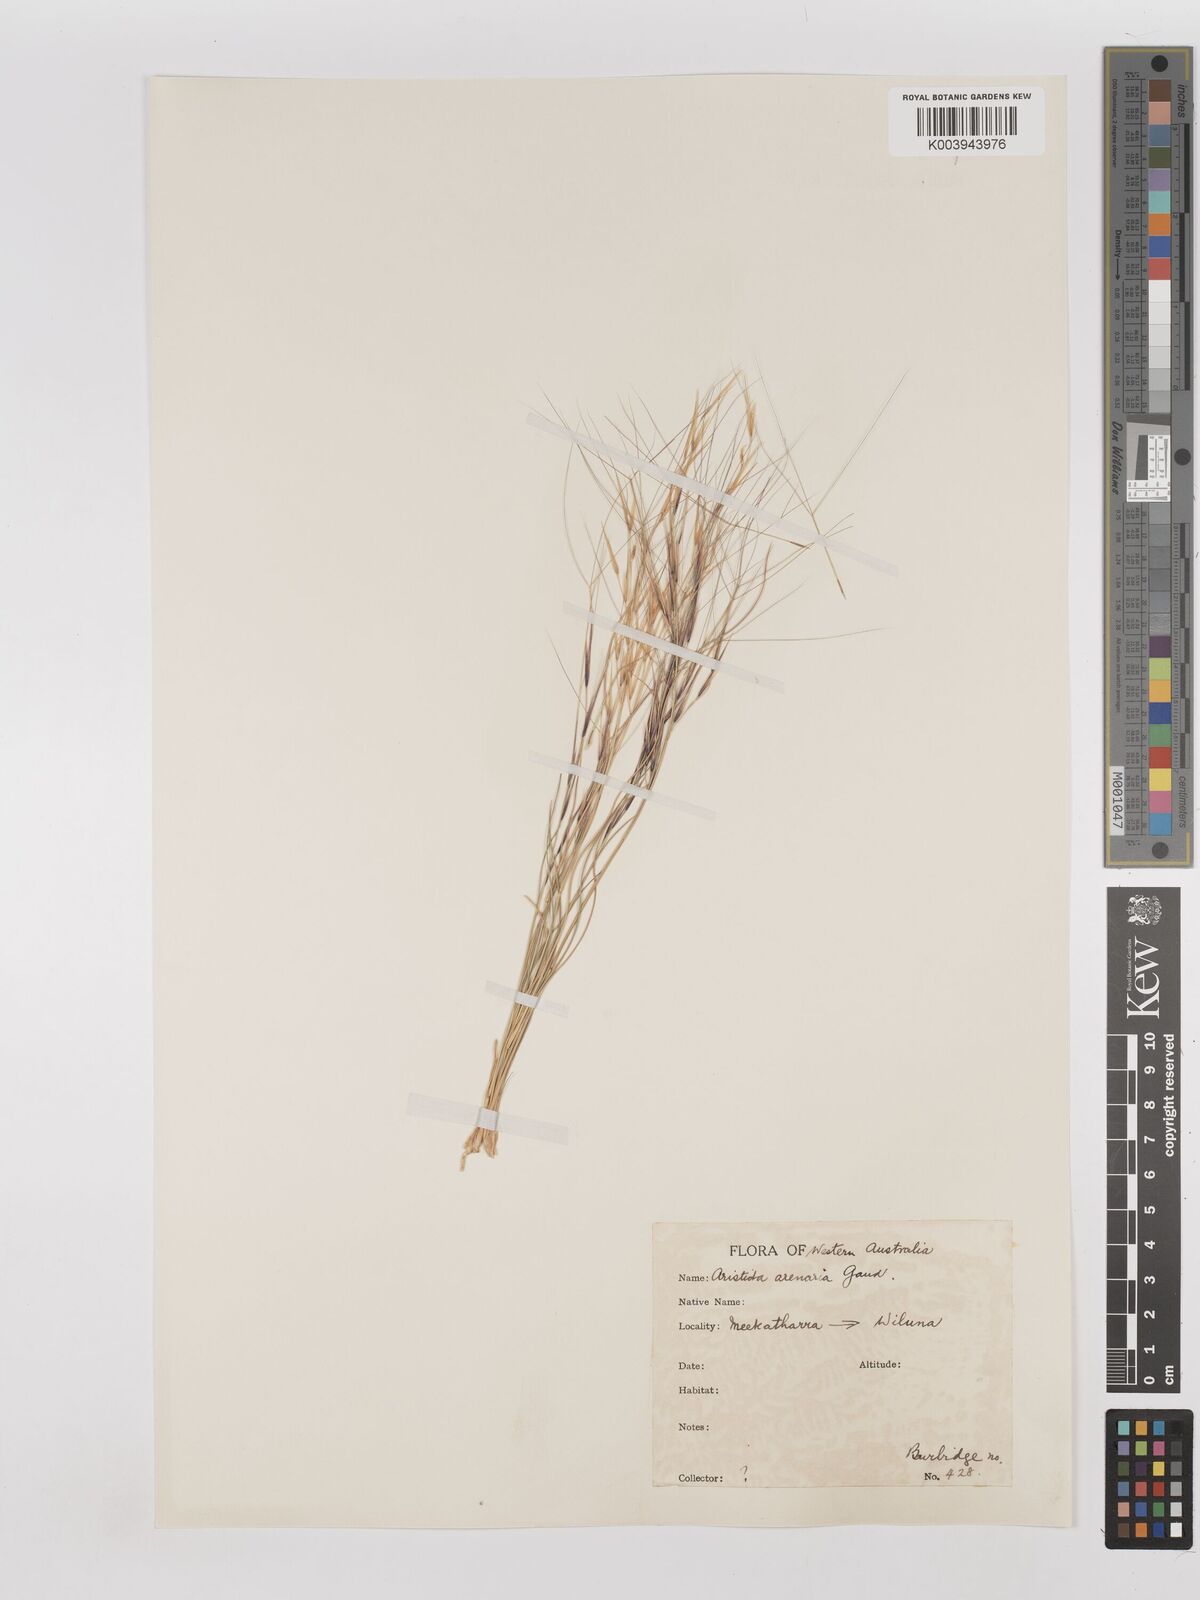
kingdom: Plantae
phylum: Tracheophyta
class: Liliopsida
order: Poales
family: Poaceae
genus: Aristida
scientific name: Aristida contorta
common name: Bunch kerosene grass
